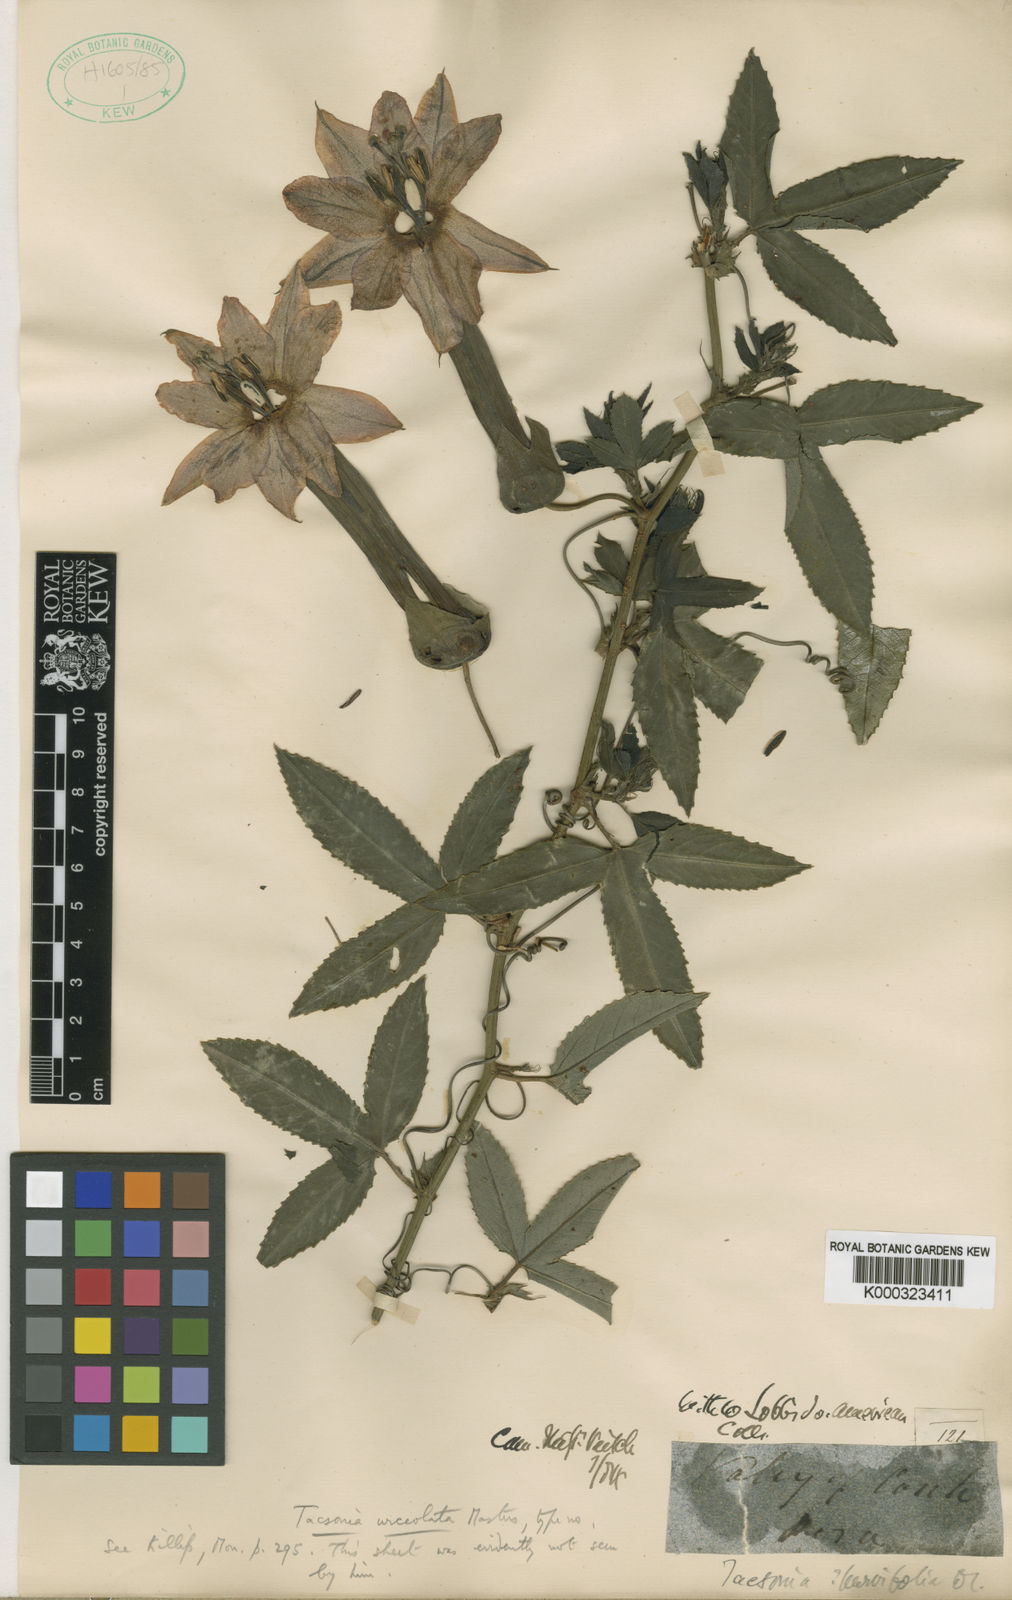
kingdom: Plantae
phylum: Tracheophyta
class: Magnoliopsida
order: Malpighiales
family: Passifloraceae
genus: Passiflora
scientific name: Passiflora mixta
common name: Passion flower
